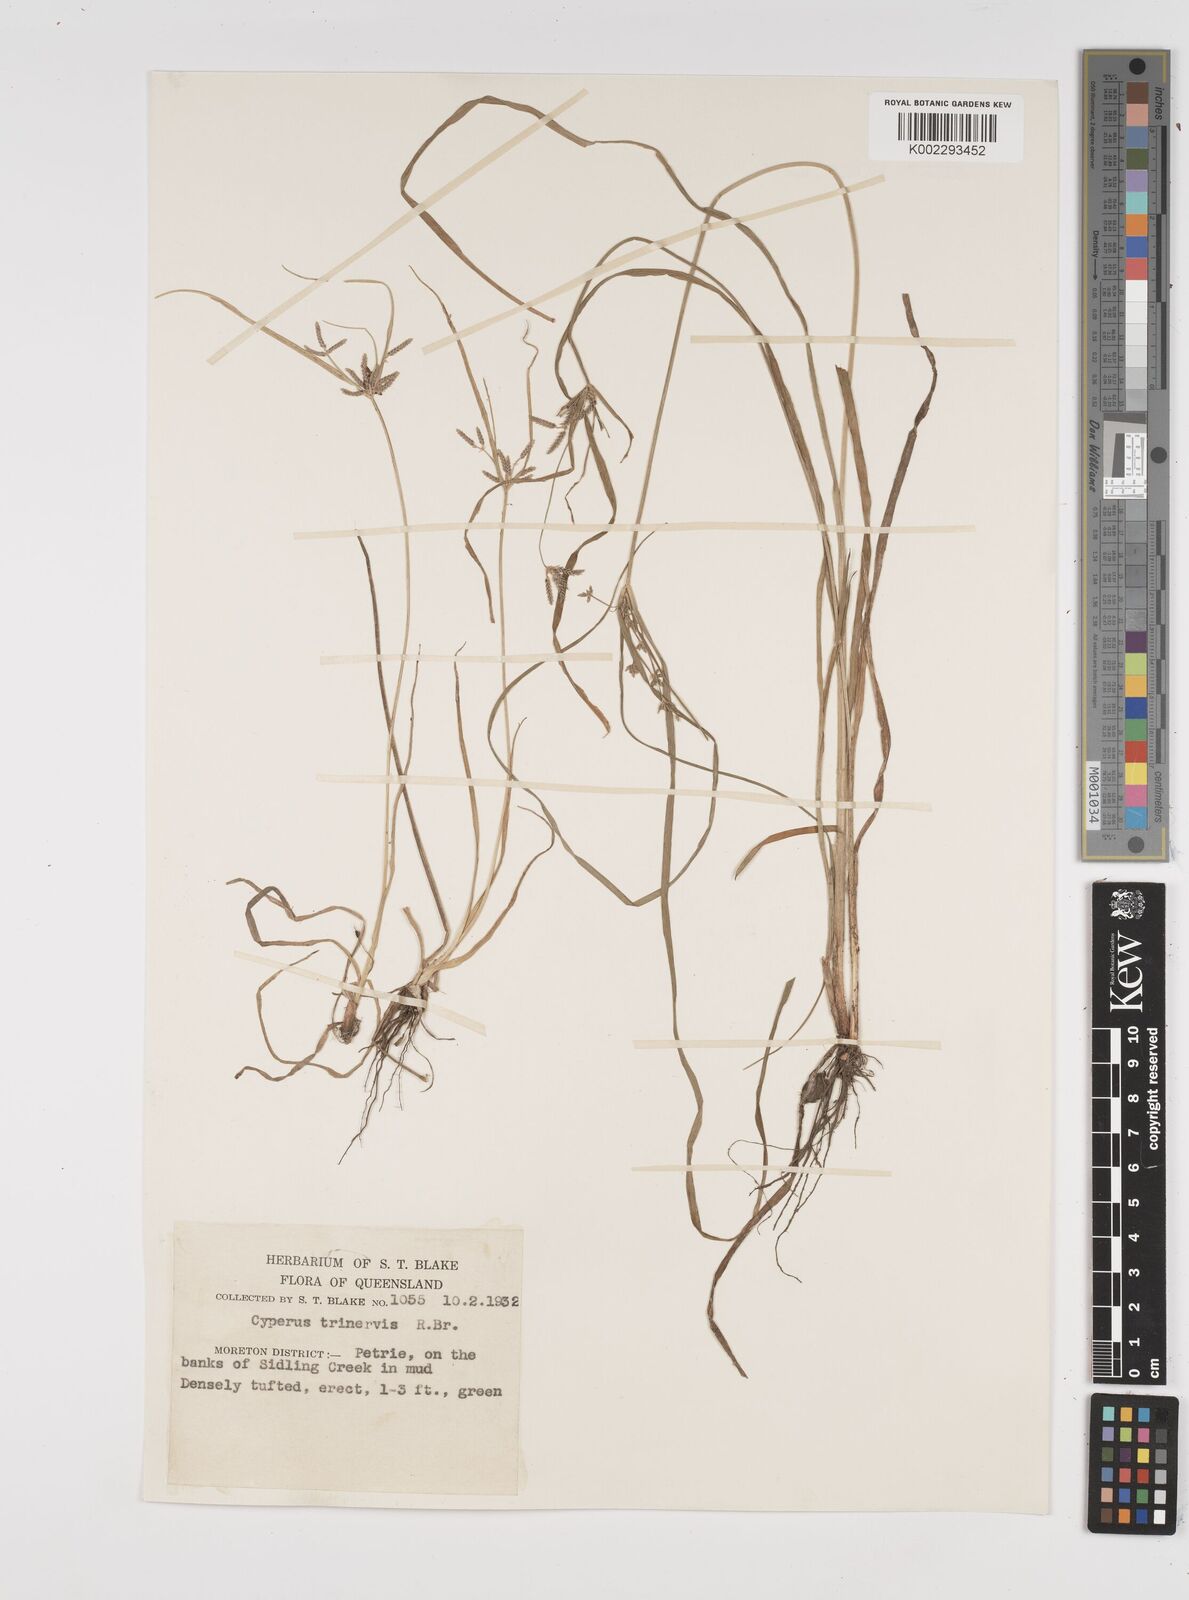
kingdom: Plantae
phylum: Tracheophyta
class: Liliopsida
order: Poales
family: Cyperaceae
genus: Cyperus
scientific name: Cyperus trinervis
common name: Australian flatsedge
